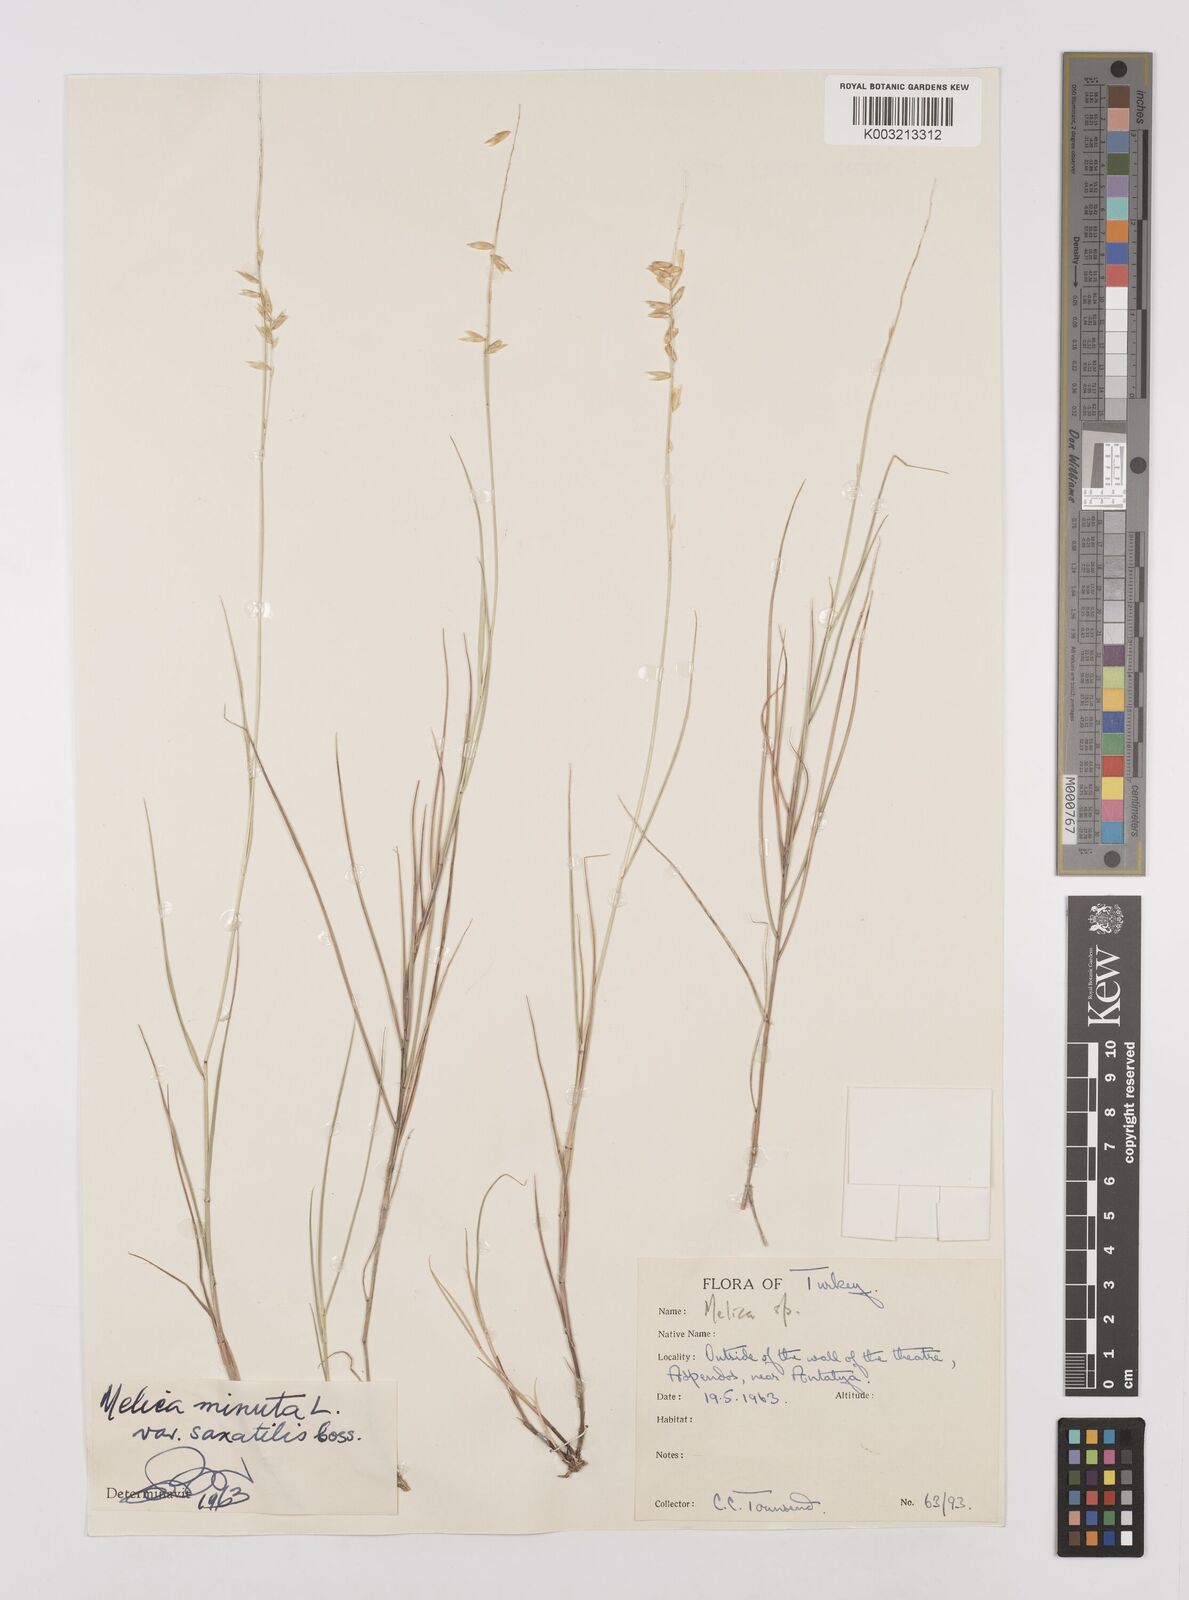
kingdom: Plantae
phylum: Tracheophyta
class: Liliopsida
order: Poales
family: Poaceae
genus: Melica
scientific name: Melica minuta
